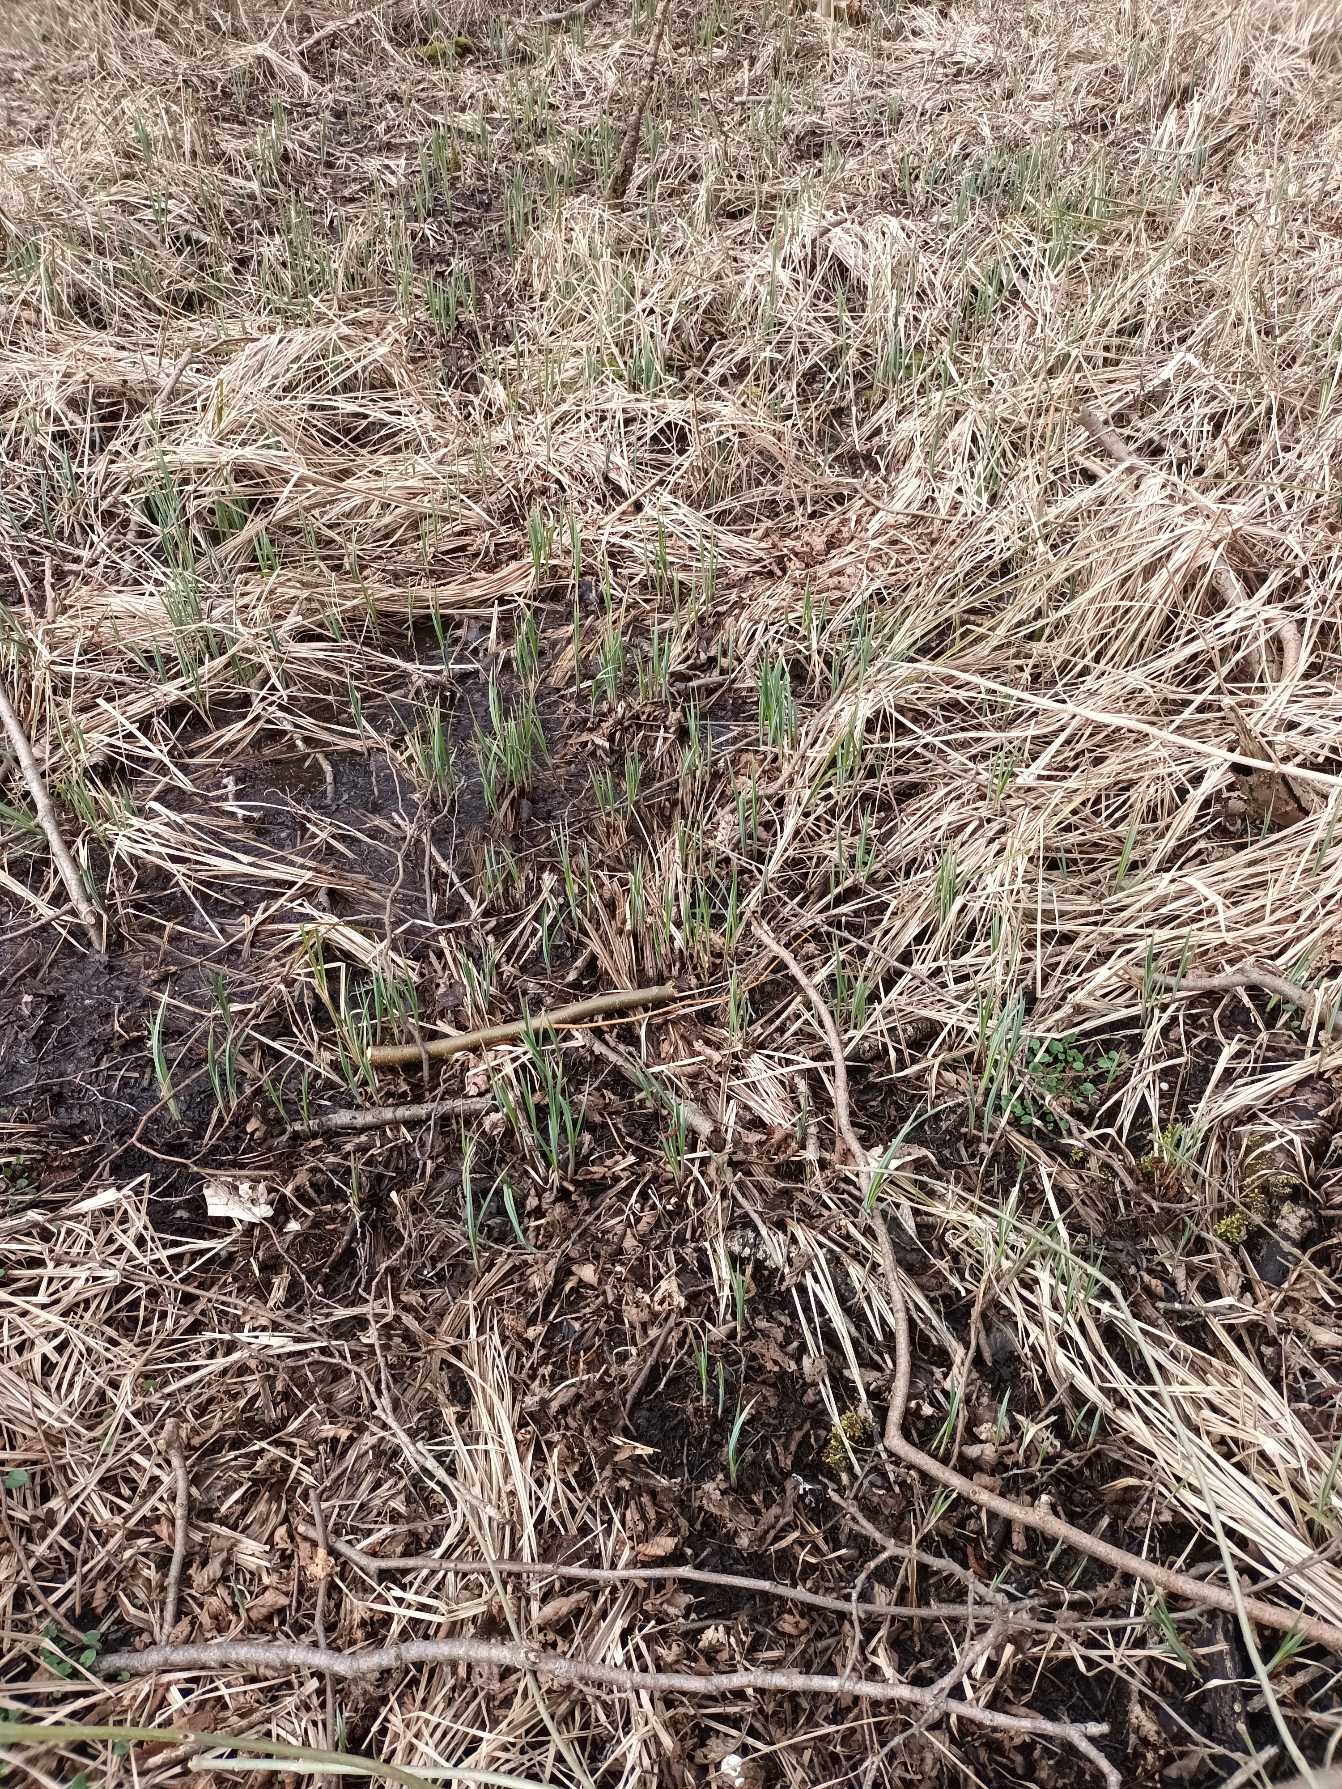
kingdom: Plantae
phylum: Tracheophyta
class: Liliopsida
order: Poales
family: Cyperaceae
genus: Carex
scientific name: Carex acutiformis
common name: Kær-star
